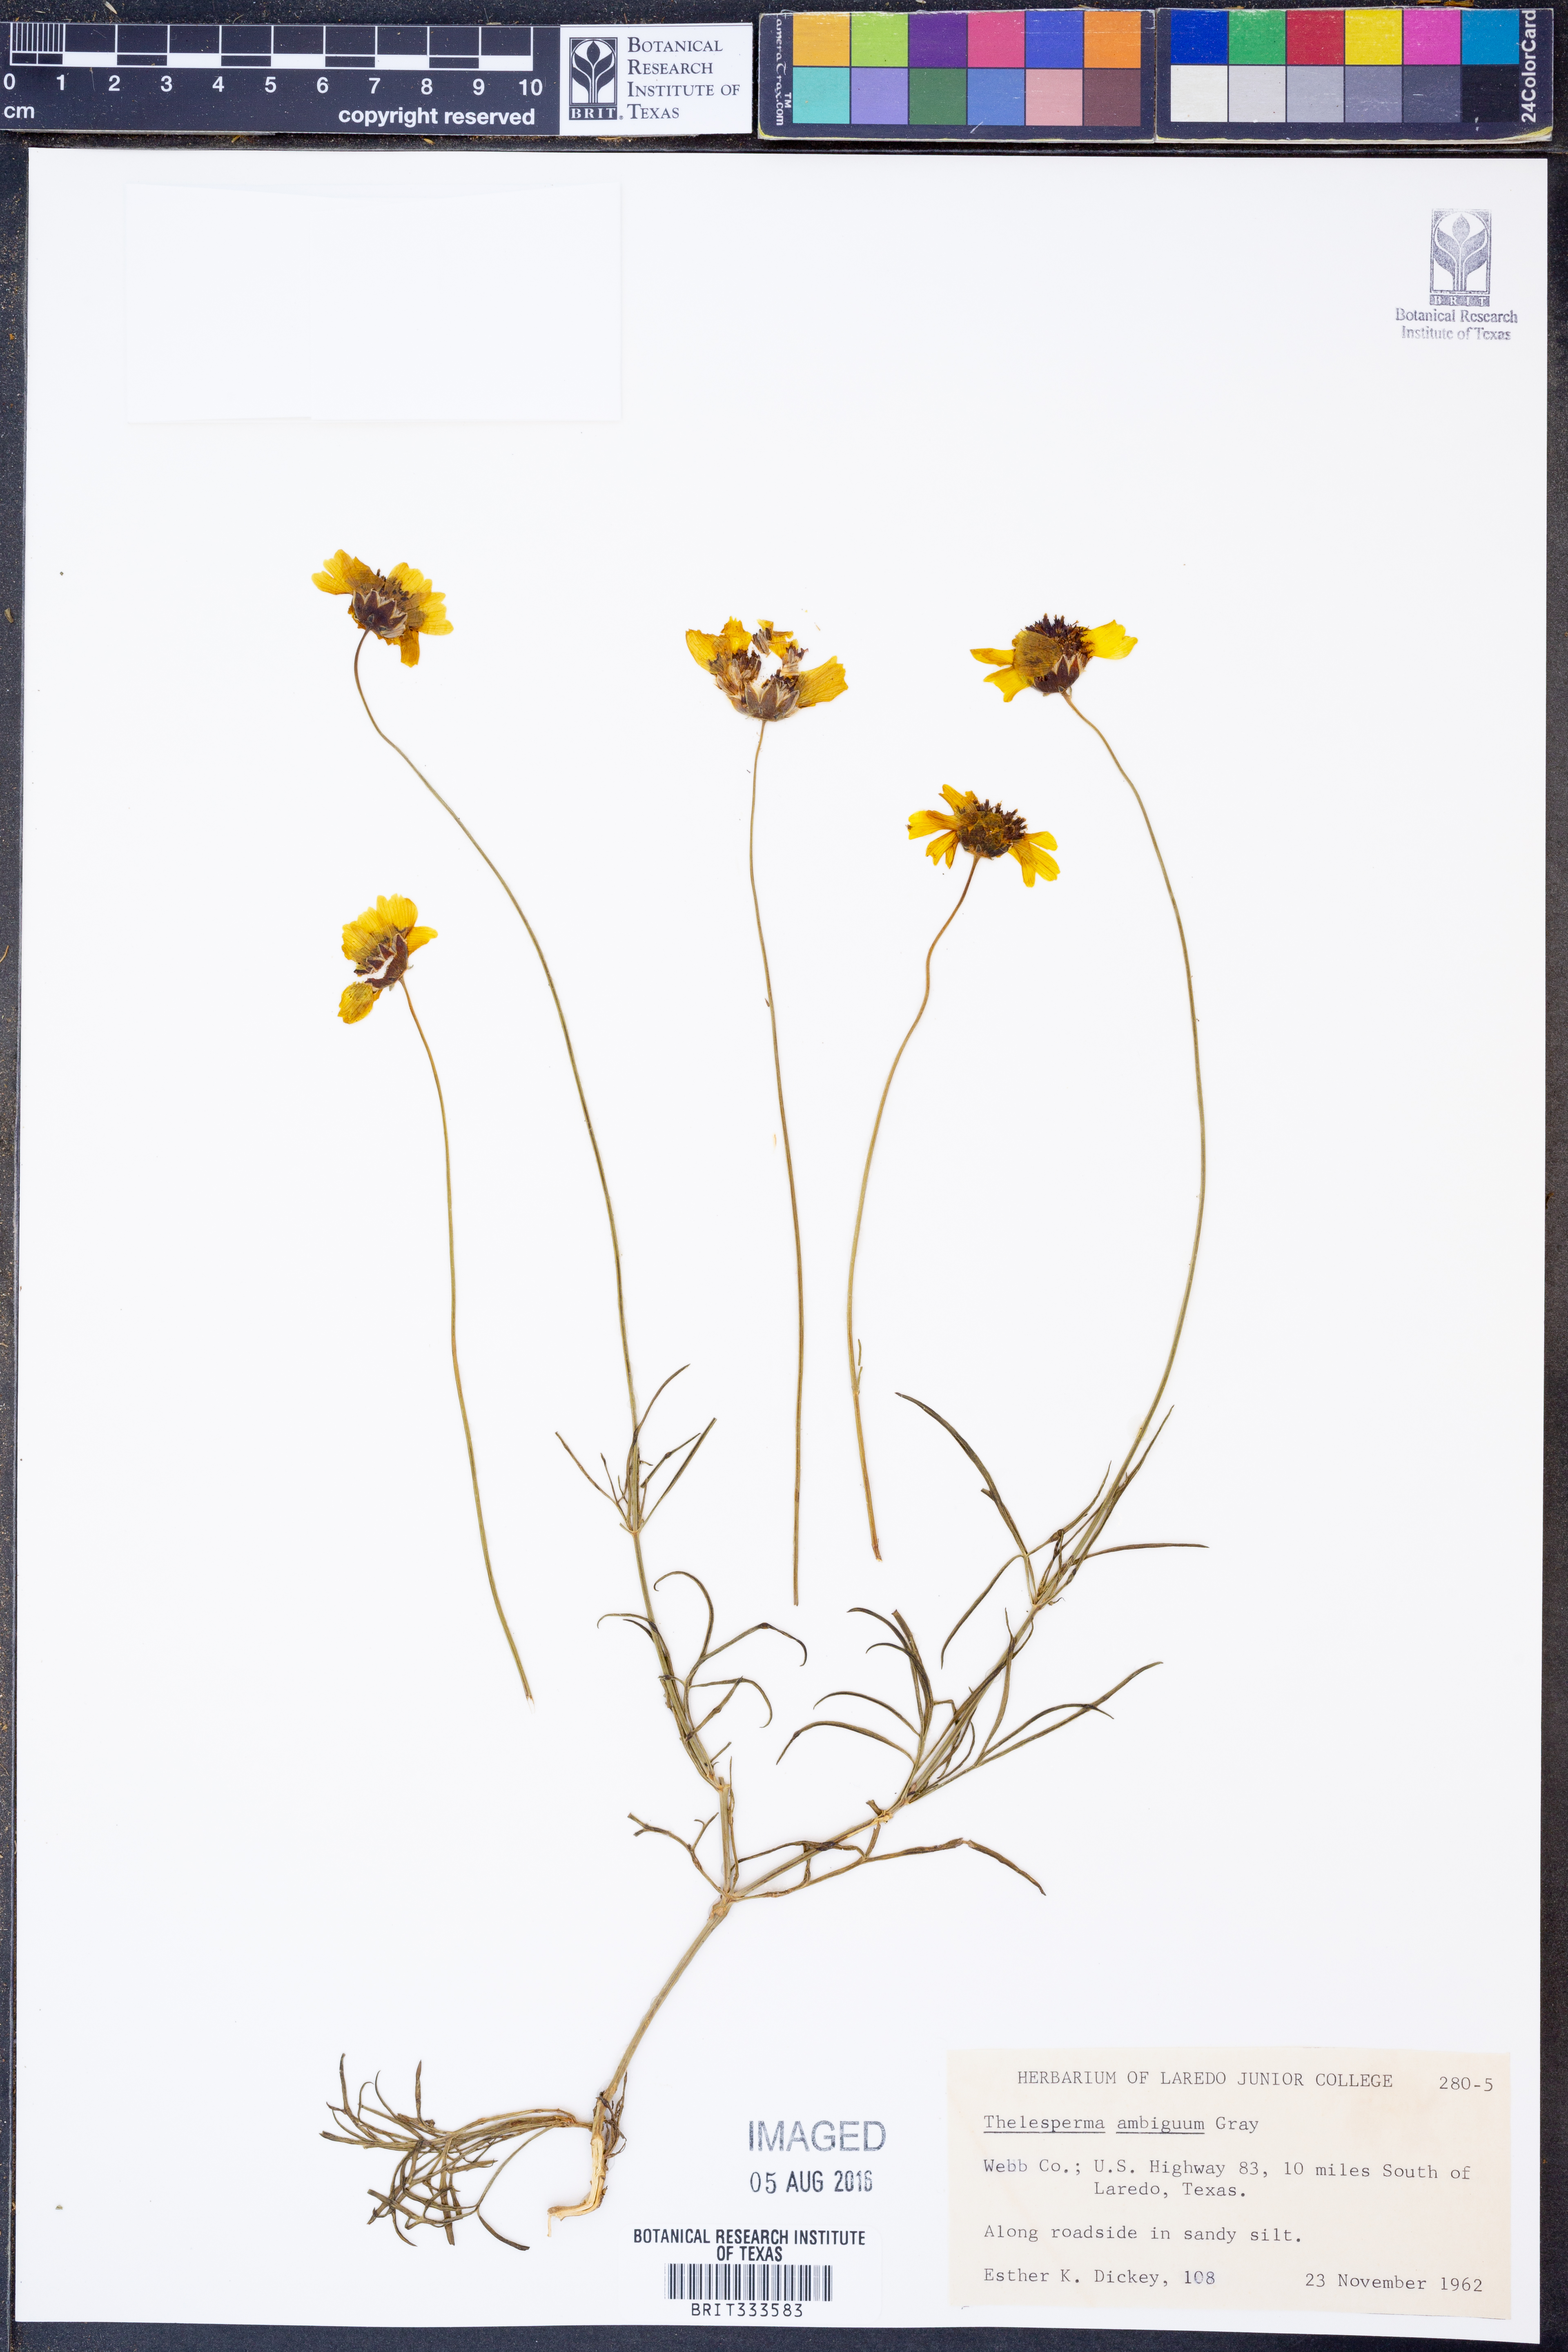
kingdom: Plantae
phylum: Tracheophyta
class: Magnoliopsida
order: Asterales
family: Asteraceae
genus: Thelesperma
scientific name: Thelesperma ambiguum
